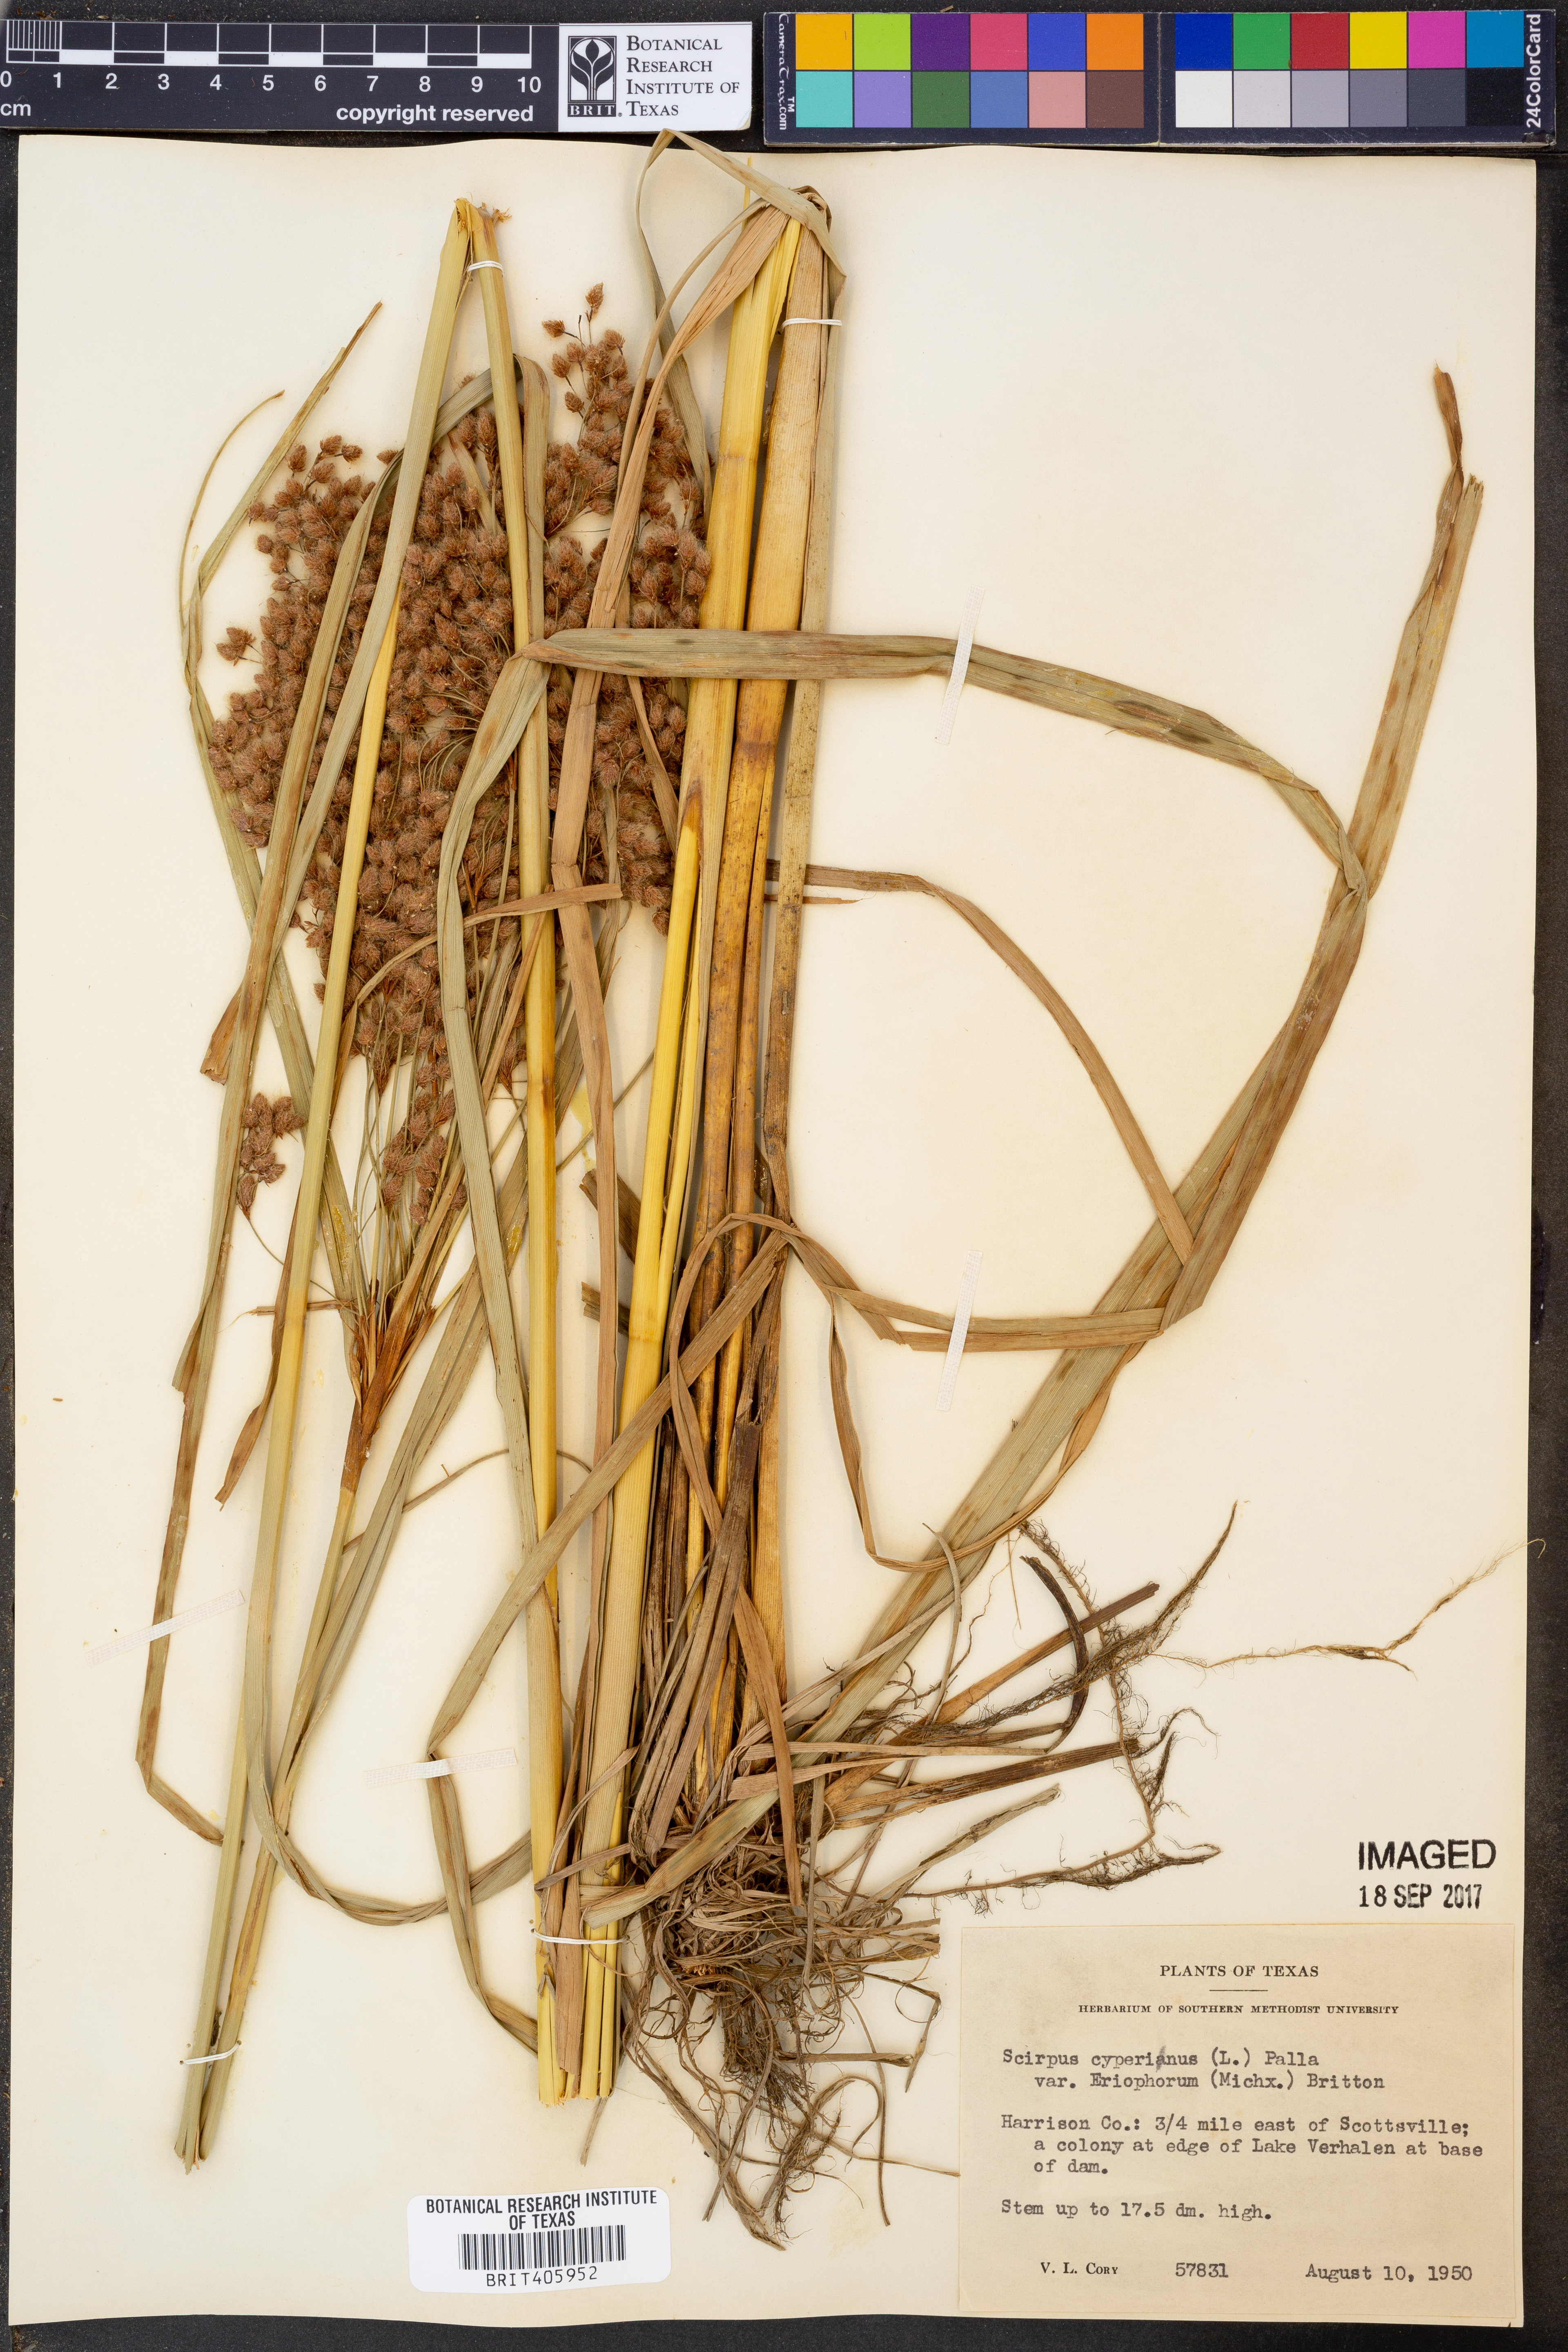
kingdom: Plantae
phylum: Tracheophyta
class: Liliopsida
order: Poales
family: Cyperaceae
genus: Scirpus
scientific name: Scirpus cyperinus
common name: Black-sheathed bulrush
